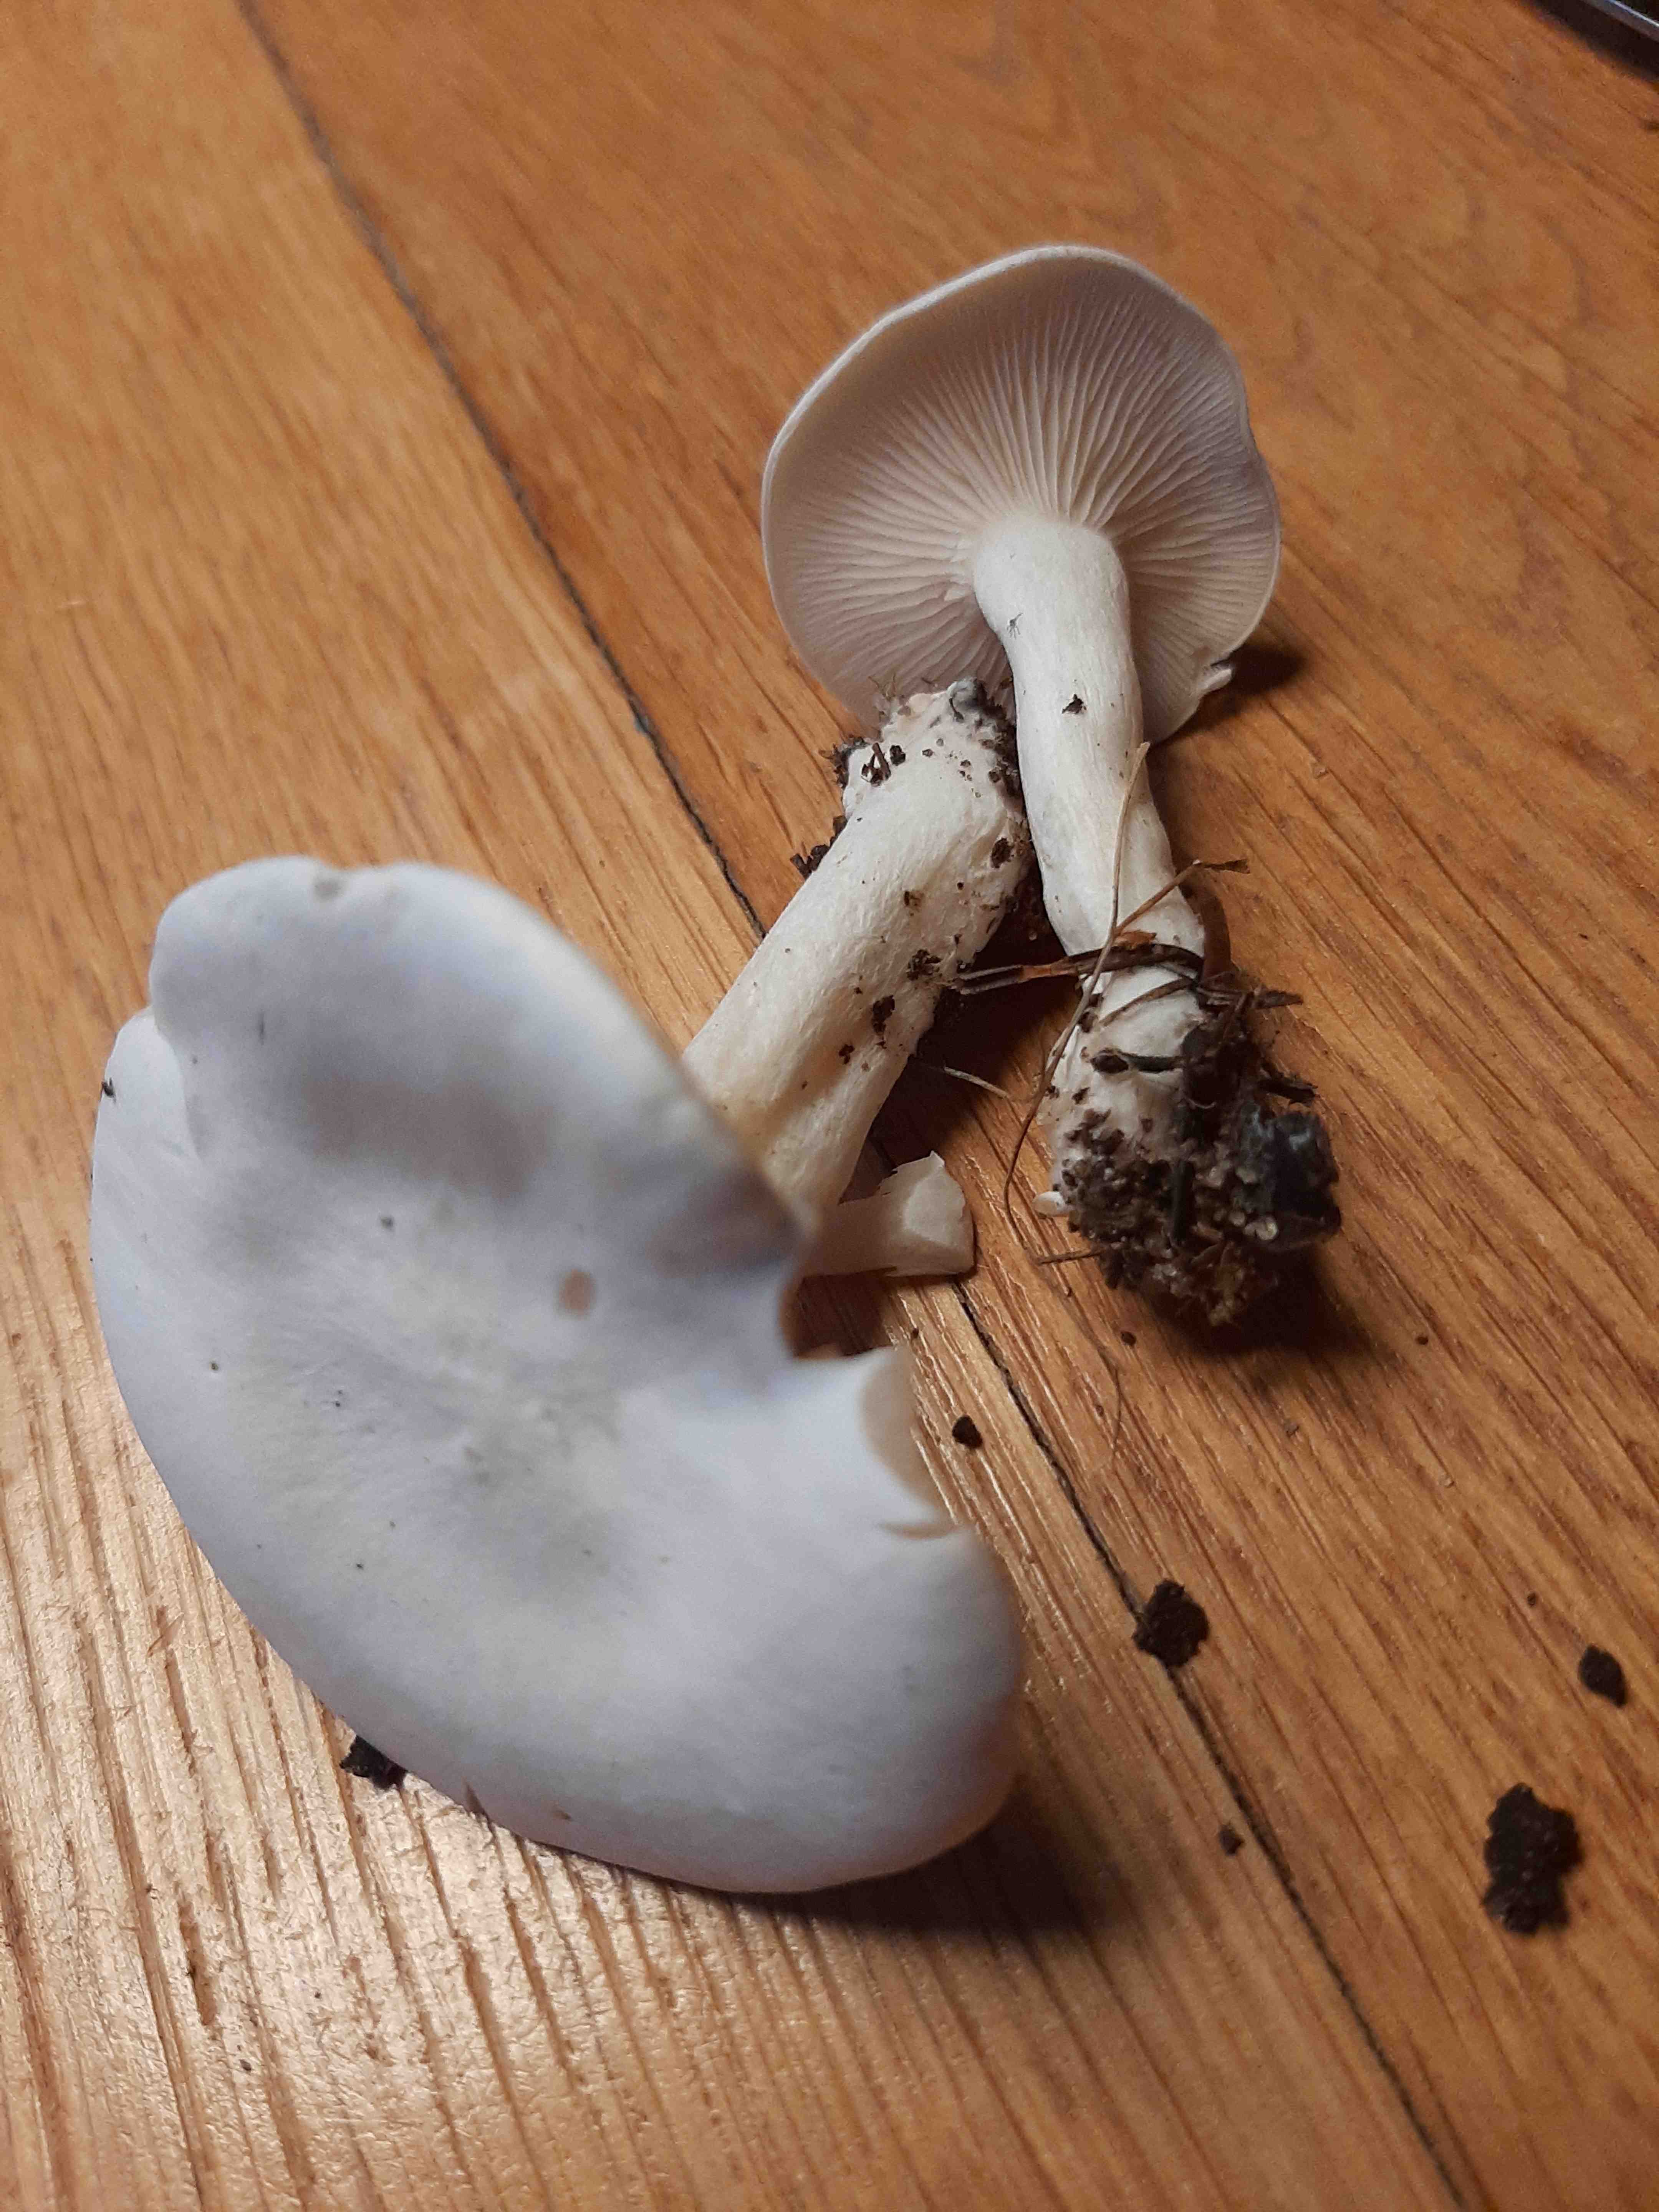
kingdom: Fungi
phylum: Basidiomycota
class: Agaricomycetes
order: Agaricales
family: Tricholomataceae
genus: Leucocybe
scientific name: Leucocybe connata
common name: knippe-tragthat
